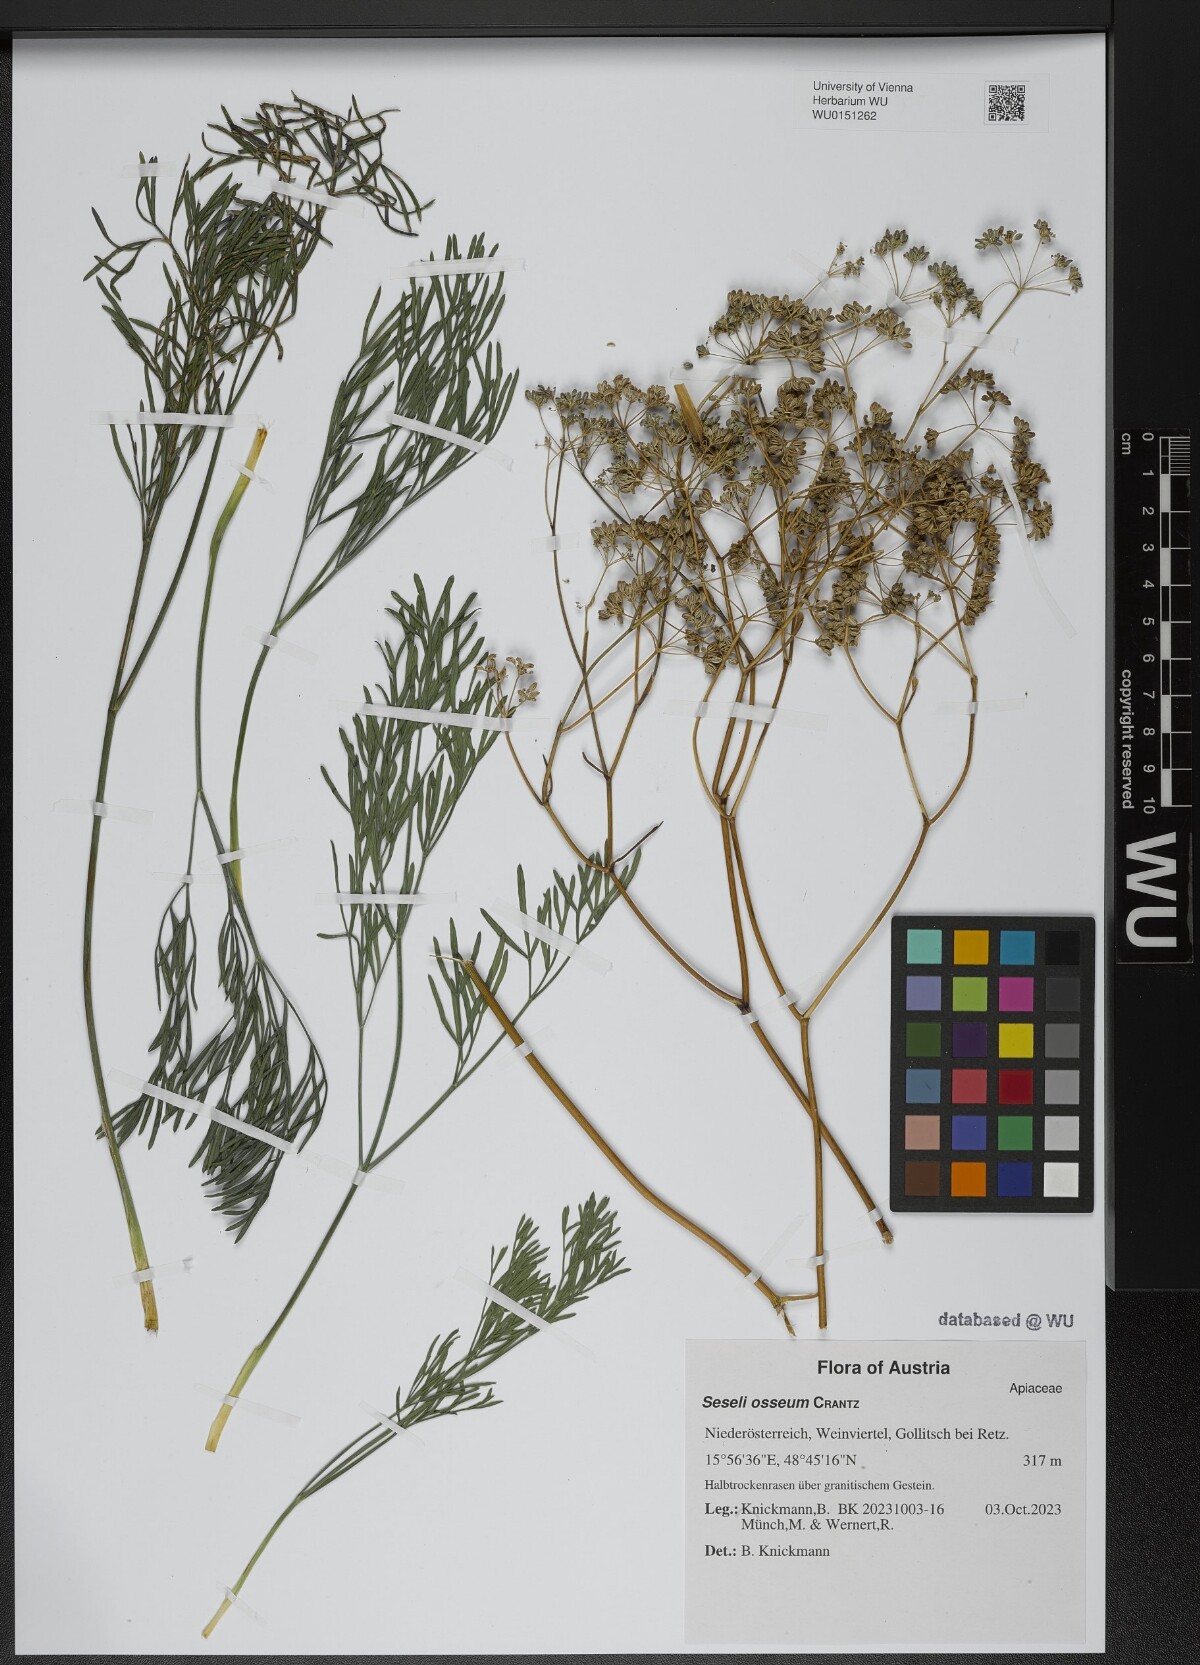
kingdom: Plantae
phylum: Tracheophyta
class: Magnoliopsida
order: Apiales
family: Apiaceae
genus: Seseli
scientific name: Seseli osseum
